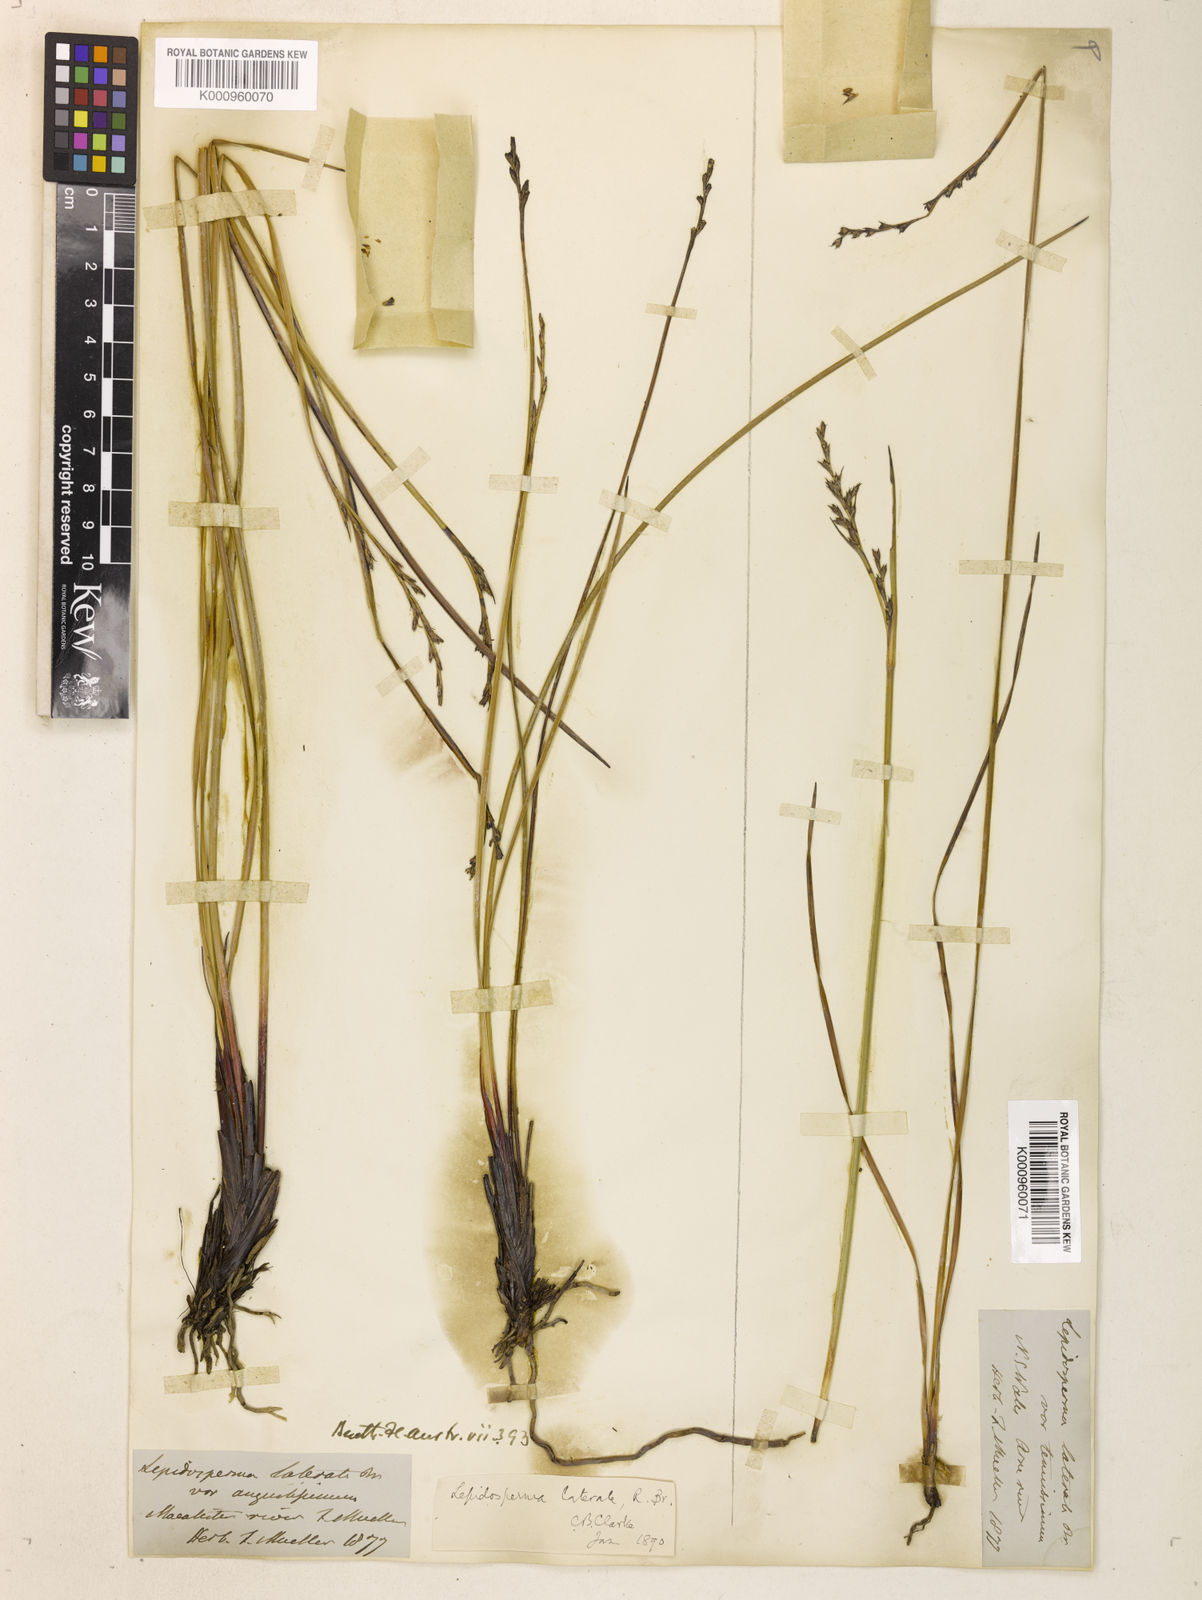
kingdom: Plantae
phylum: Tracheophyta
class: Liliopsida
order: Poales
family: Cyperaceae
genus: Lepidosperma
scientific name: Lepidosperma laterale
